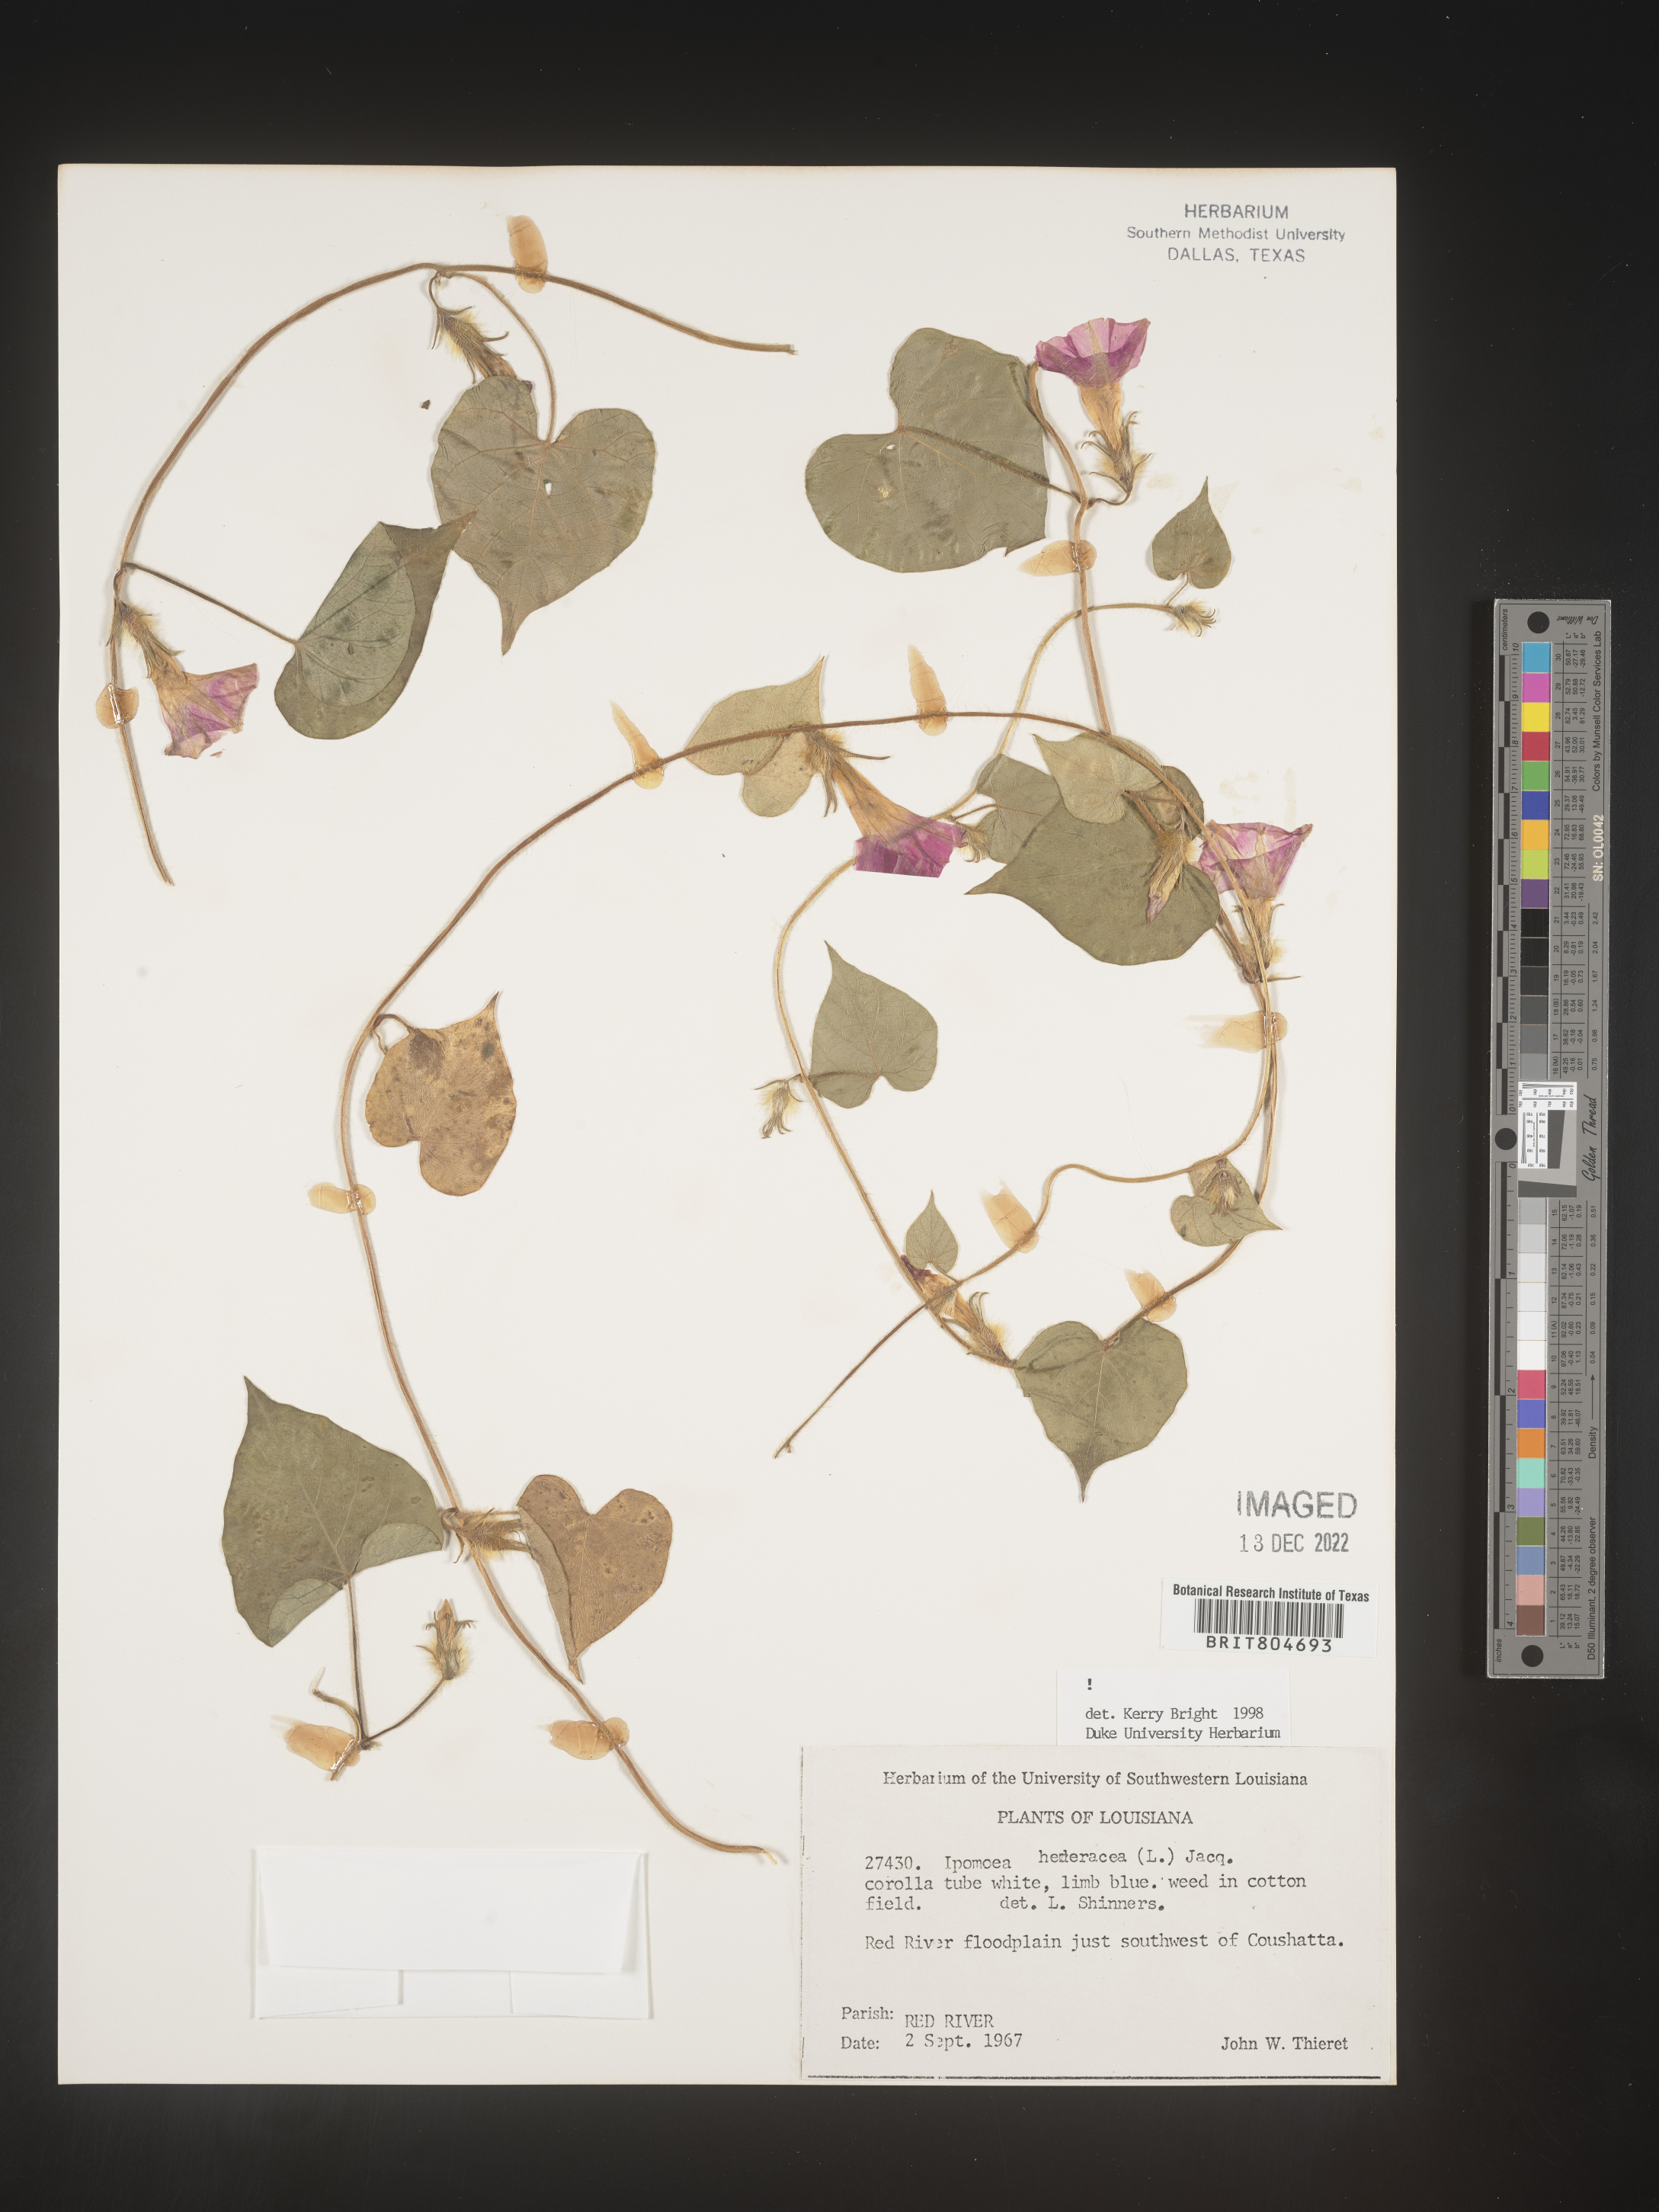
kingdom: Plantae
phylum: Tracheophyta
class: Magnoliopsida
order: Solanales
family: Convolvulaceae
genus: Ipomoea
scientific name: Ipomoea hederacea
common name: Ivy-leaved morning-glory
